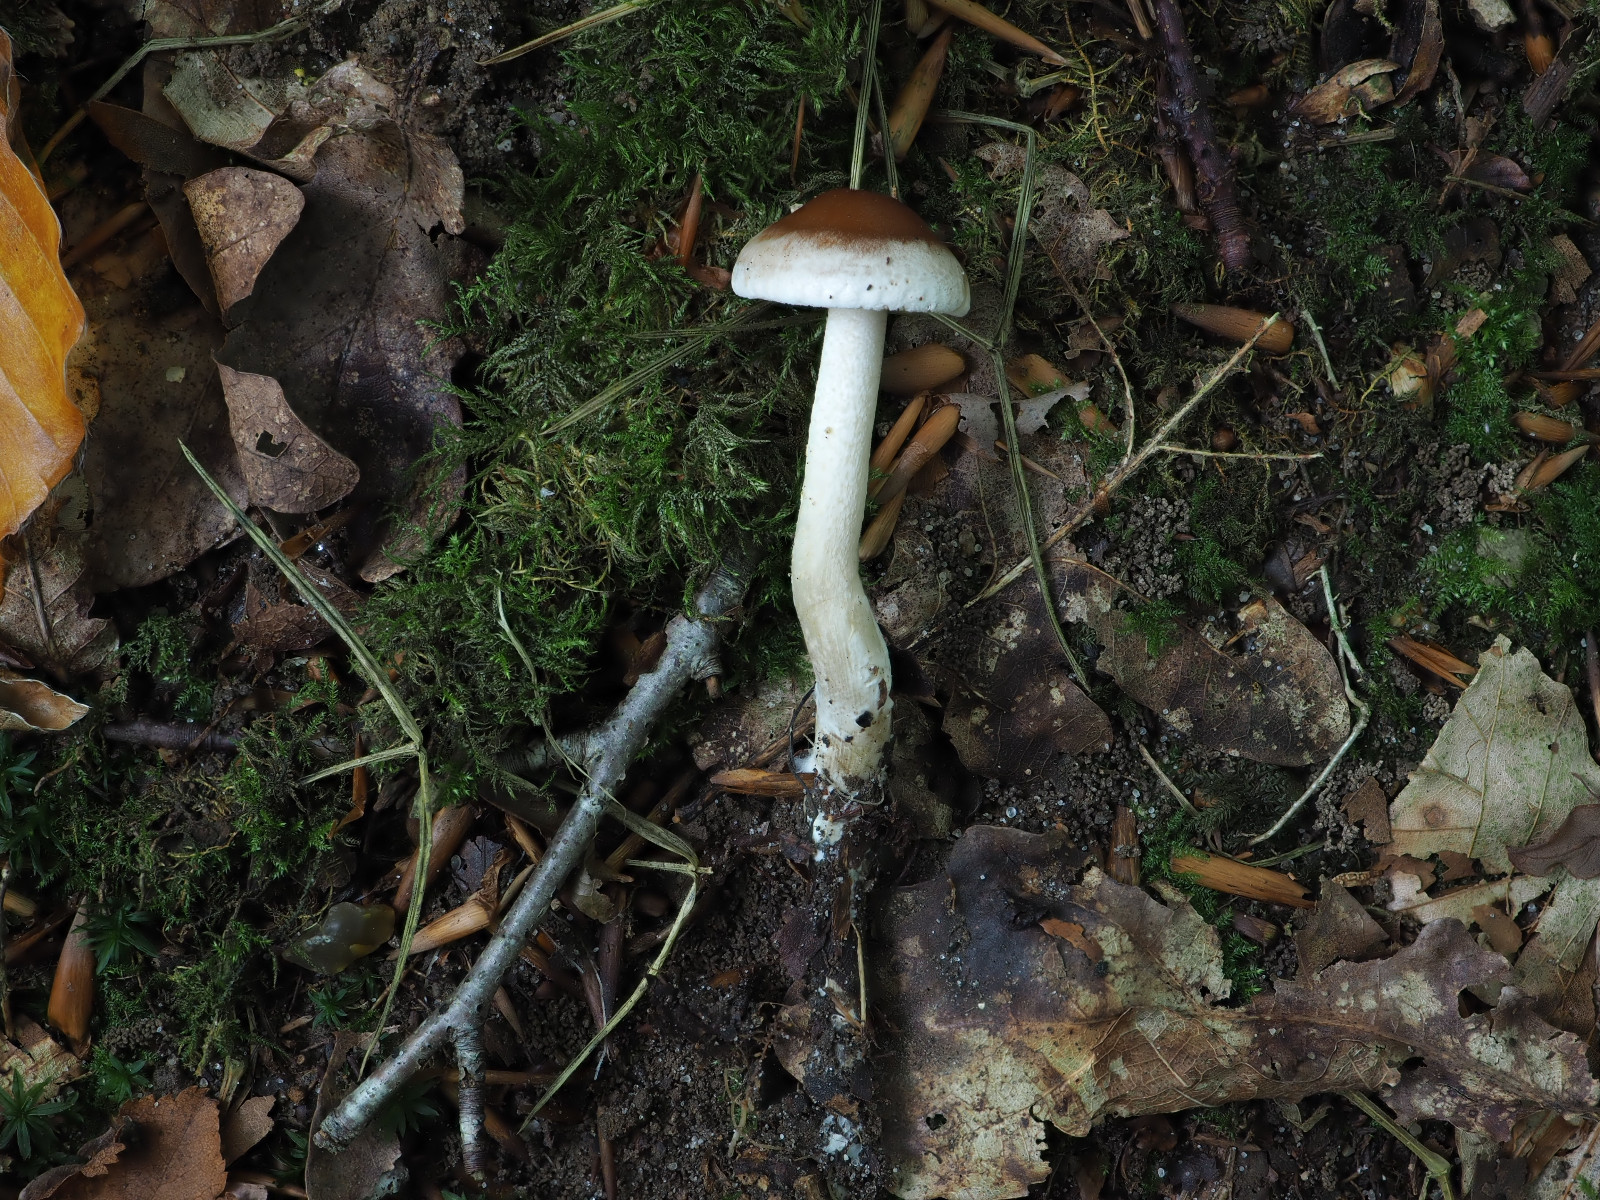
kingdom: Fungi
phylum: Basidiomycota
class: Agaricomycetes
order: Agaricales
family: Hymenogastraceae
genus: Hebeloma
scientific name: Hebeloma birrus
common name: rodslående tåreblad
